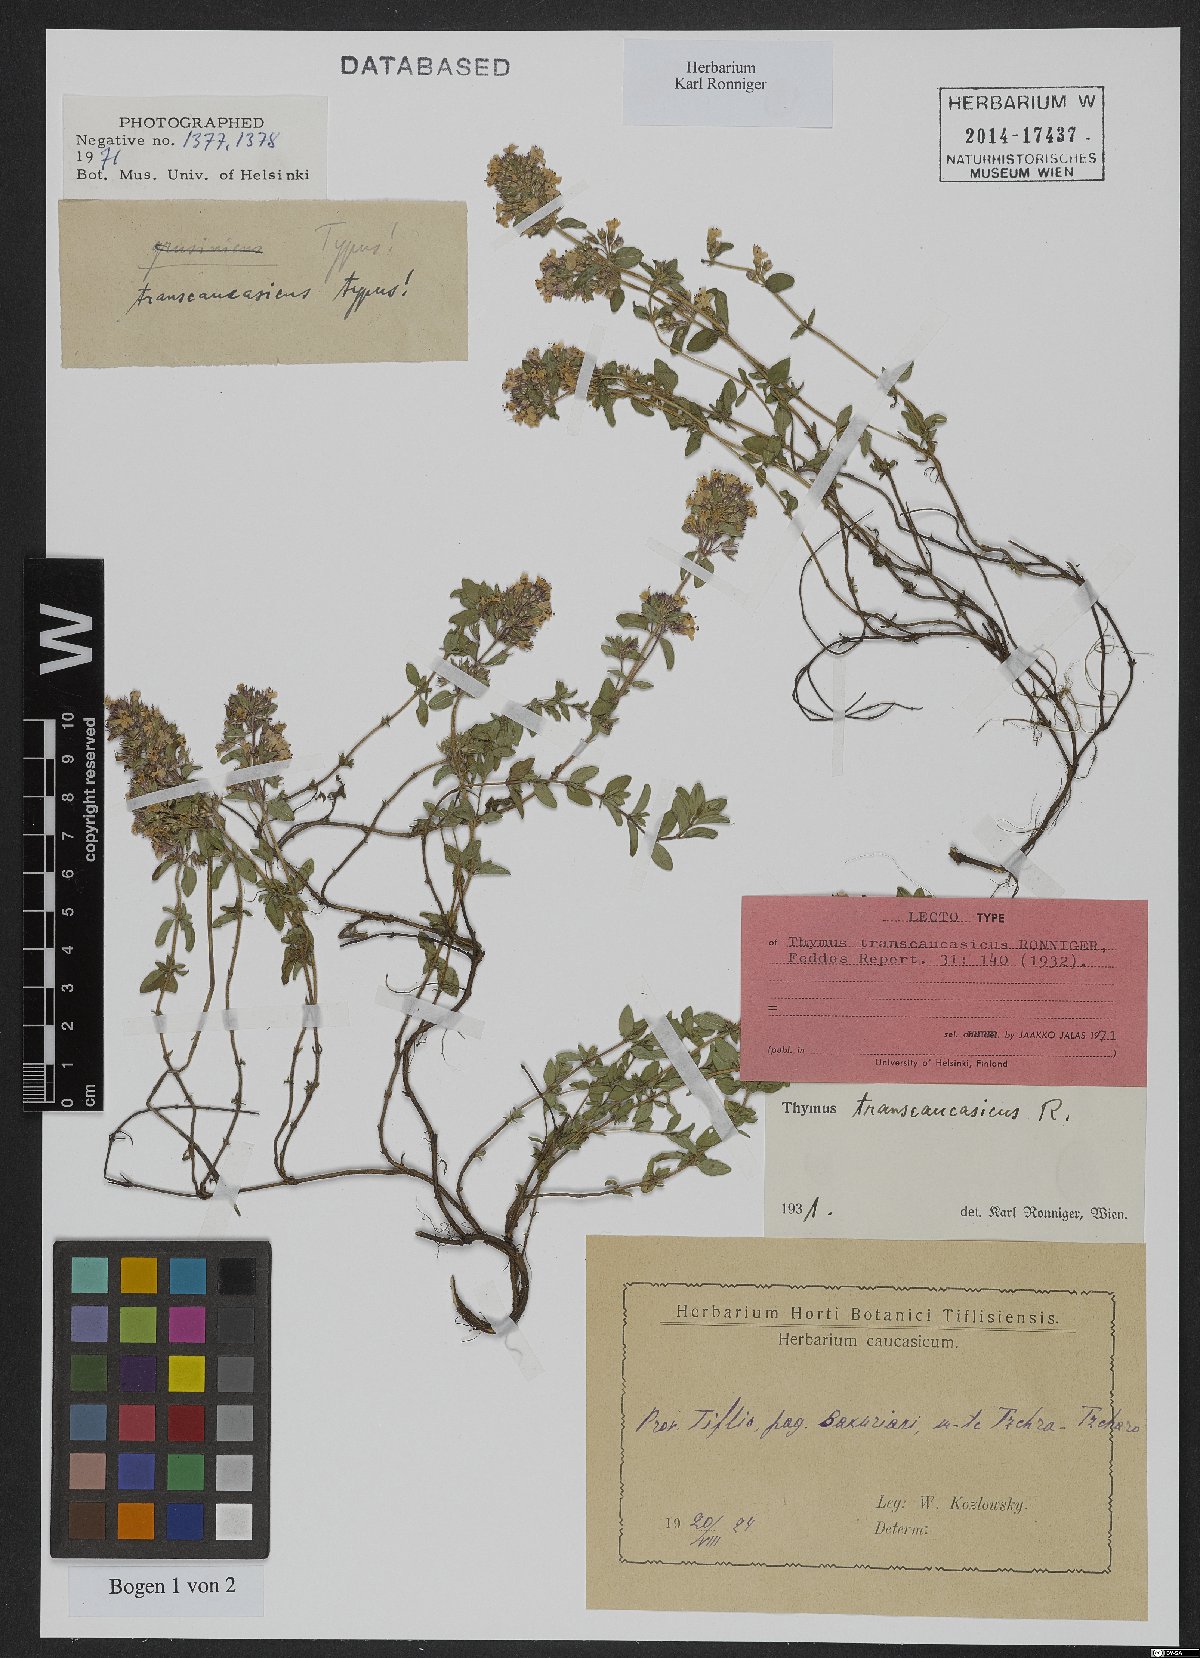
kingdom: Plantae
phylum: Tracheophyta
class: Magnoliopsida
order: Lamiales
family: Lamiaceae
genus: Thymus
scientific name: Thymus transcaucasicus
